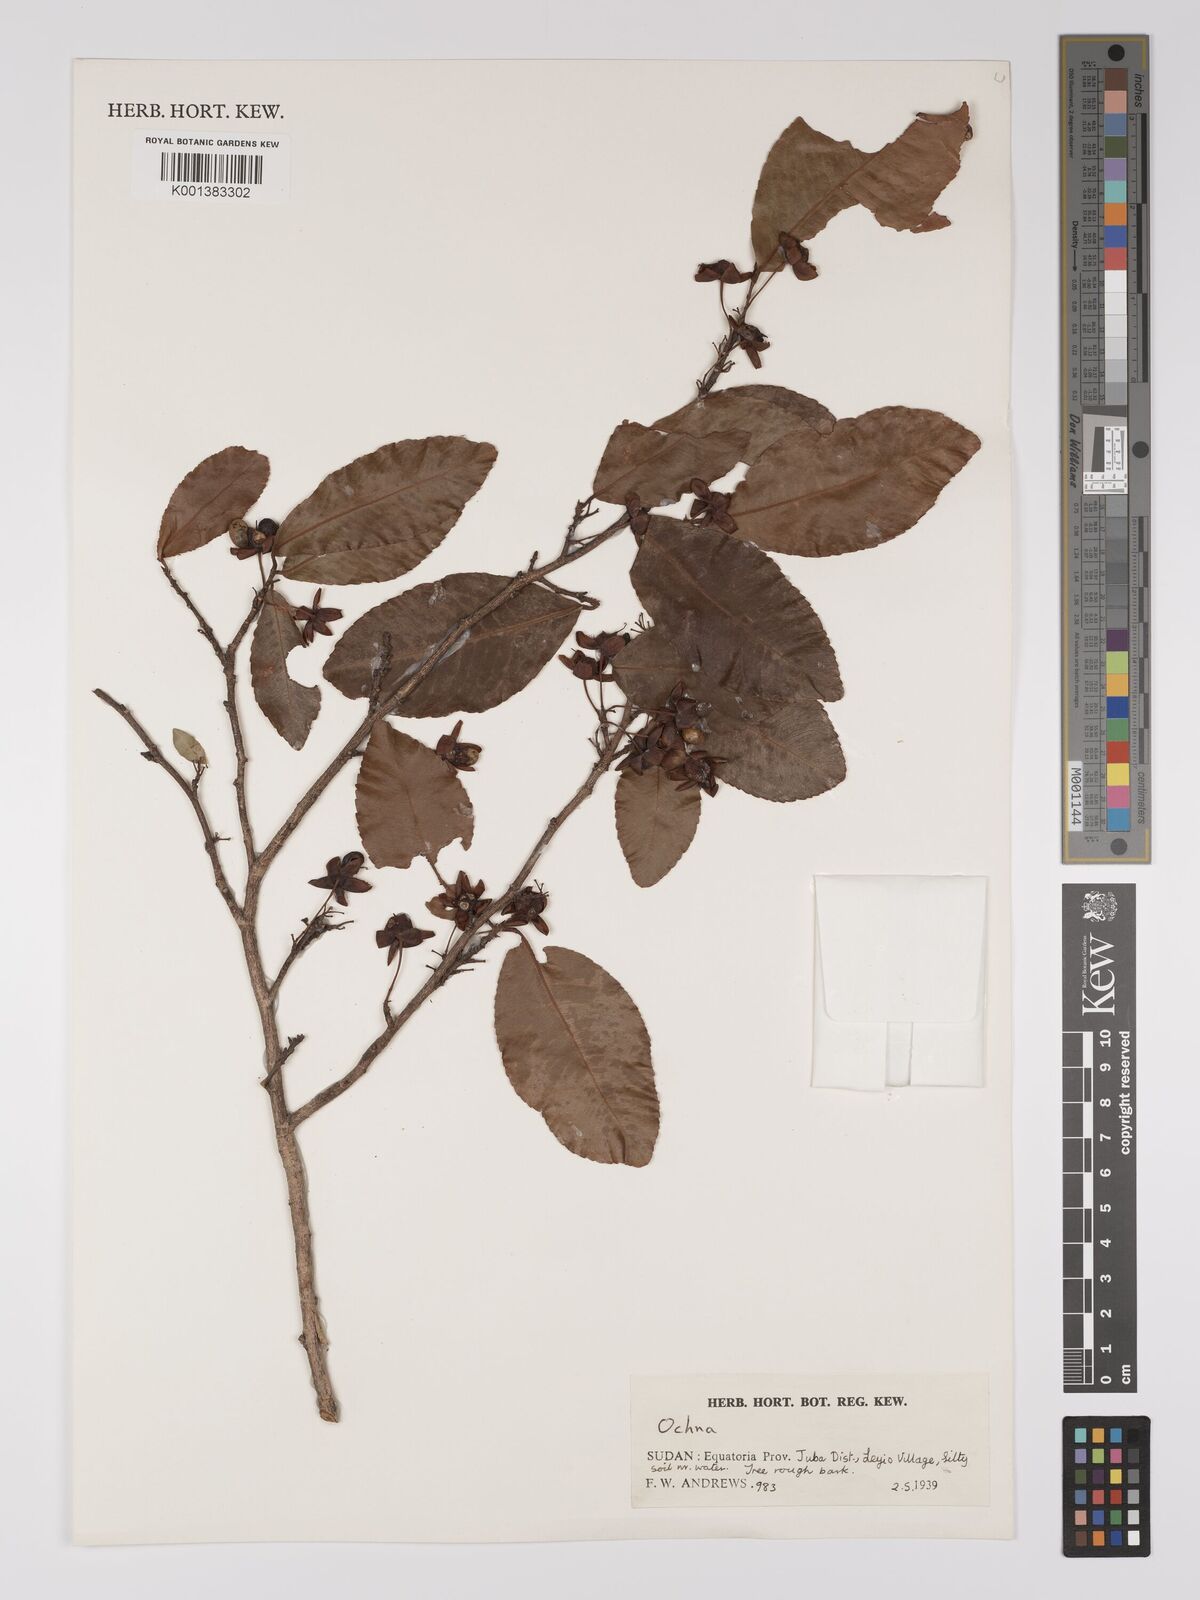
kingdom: Plantae
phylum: Tracheophyta
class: Magnoliopsida
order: Malpighiales
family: Ochnaceae
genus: Ochna
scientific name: Ochna
